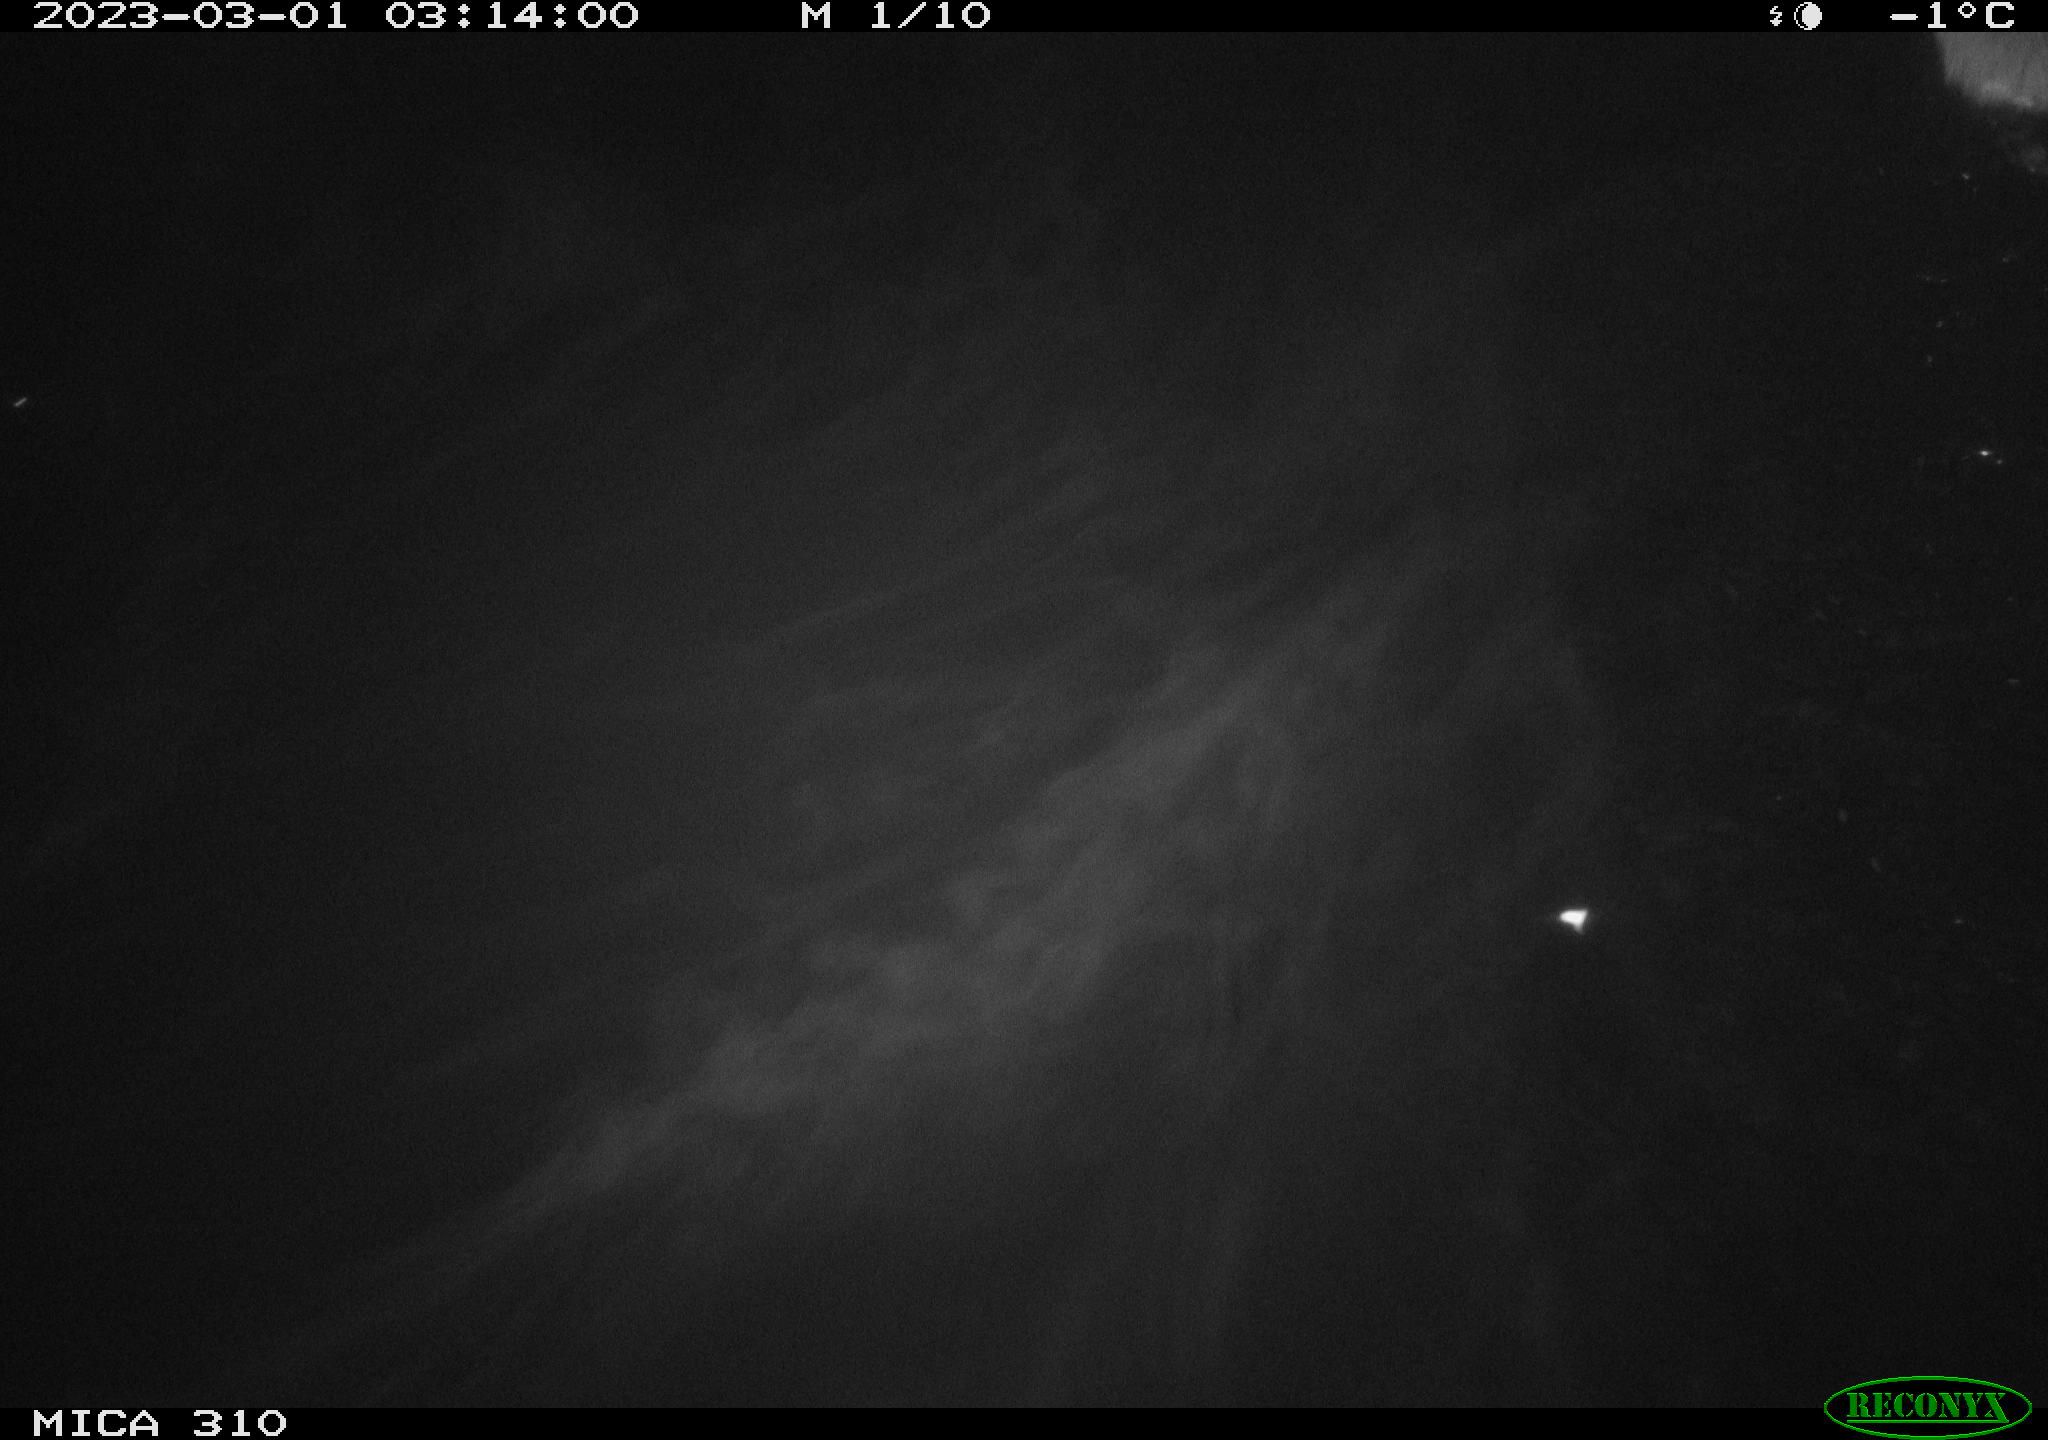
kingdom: Animalia
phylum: Chordata
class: Mammalia
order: Rodentia
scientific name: Rodentia
